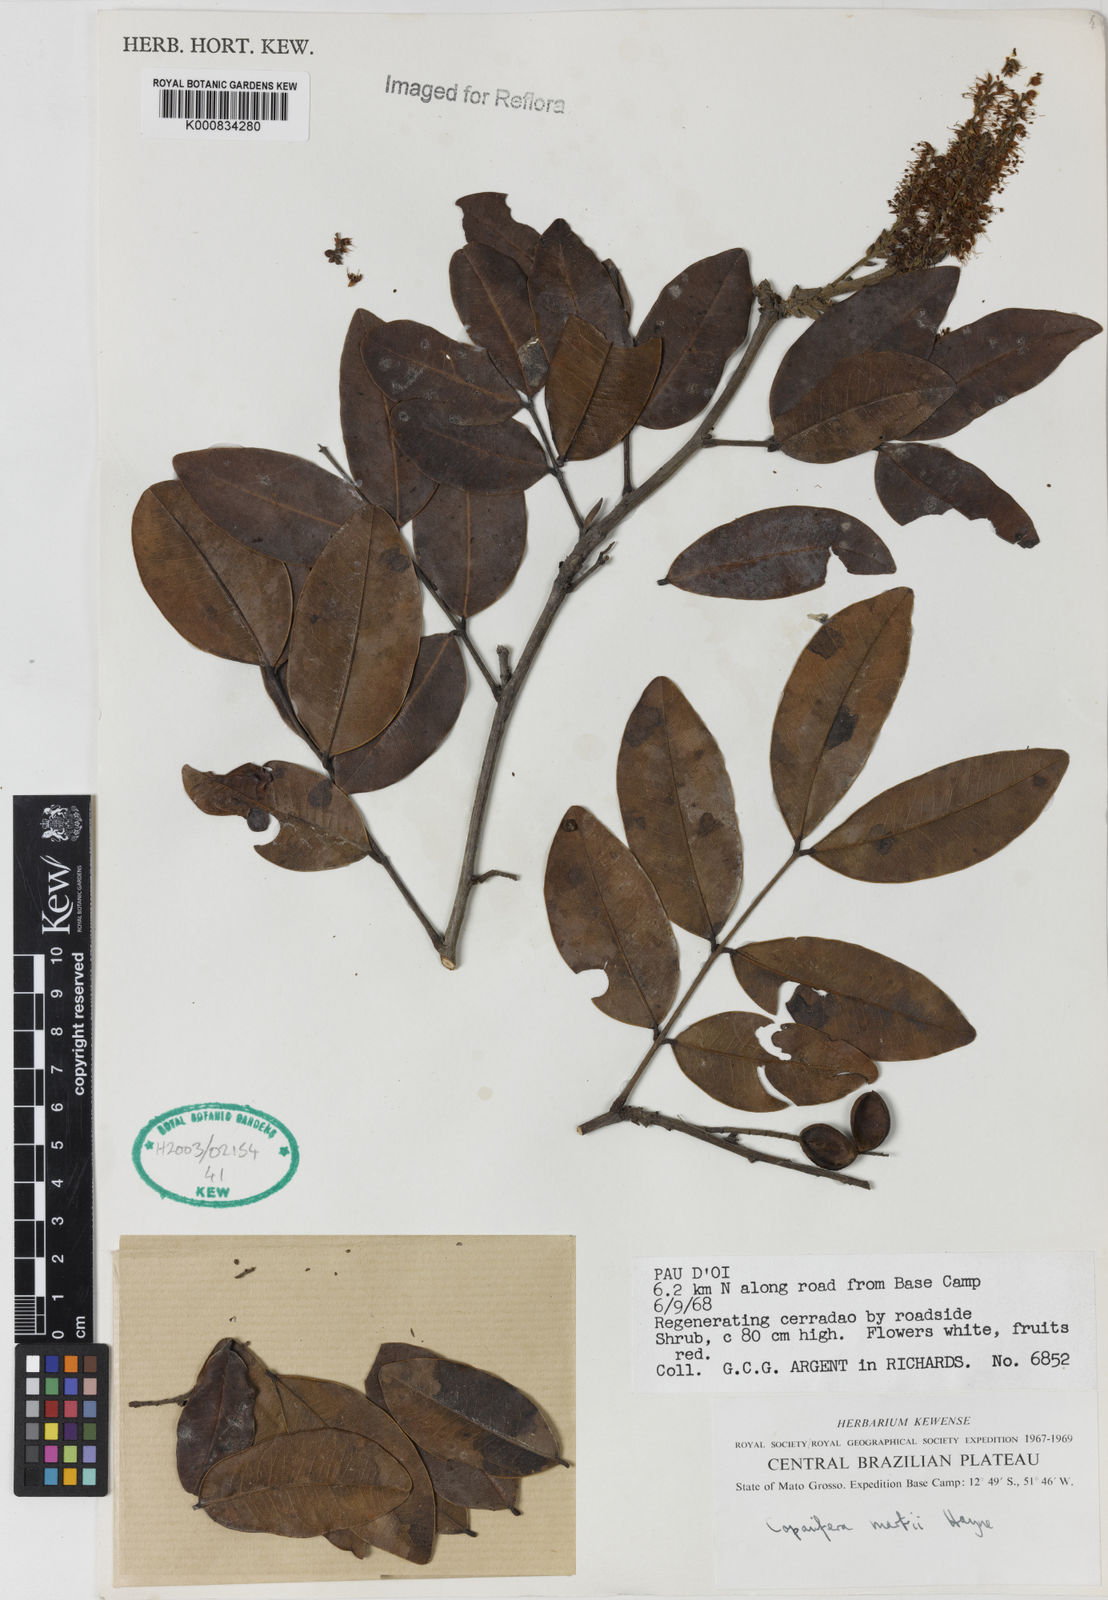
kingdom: Plantae
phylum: Tracheophyta
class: Magnoliopsida
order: Fabales
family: Fabaceae
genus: Copaifera
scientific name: Copaifera martii
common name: Copaiba
